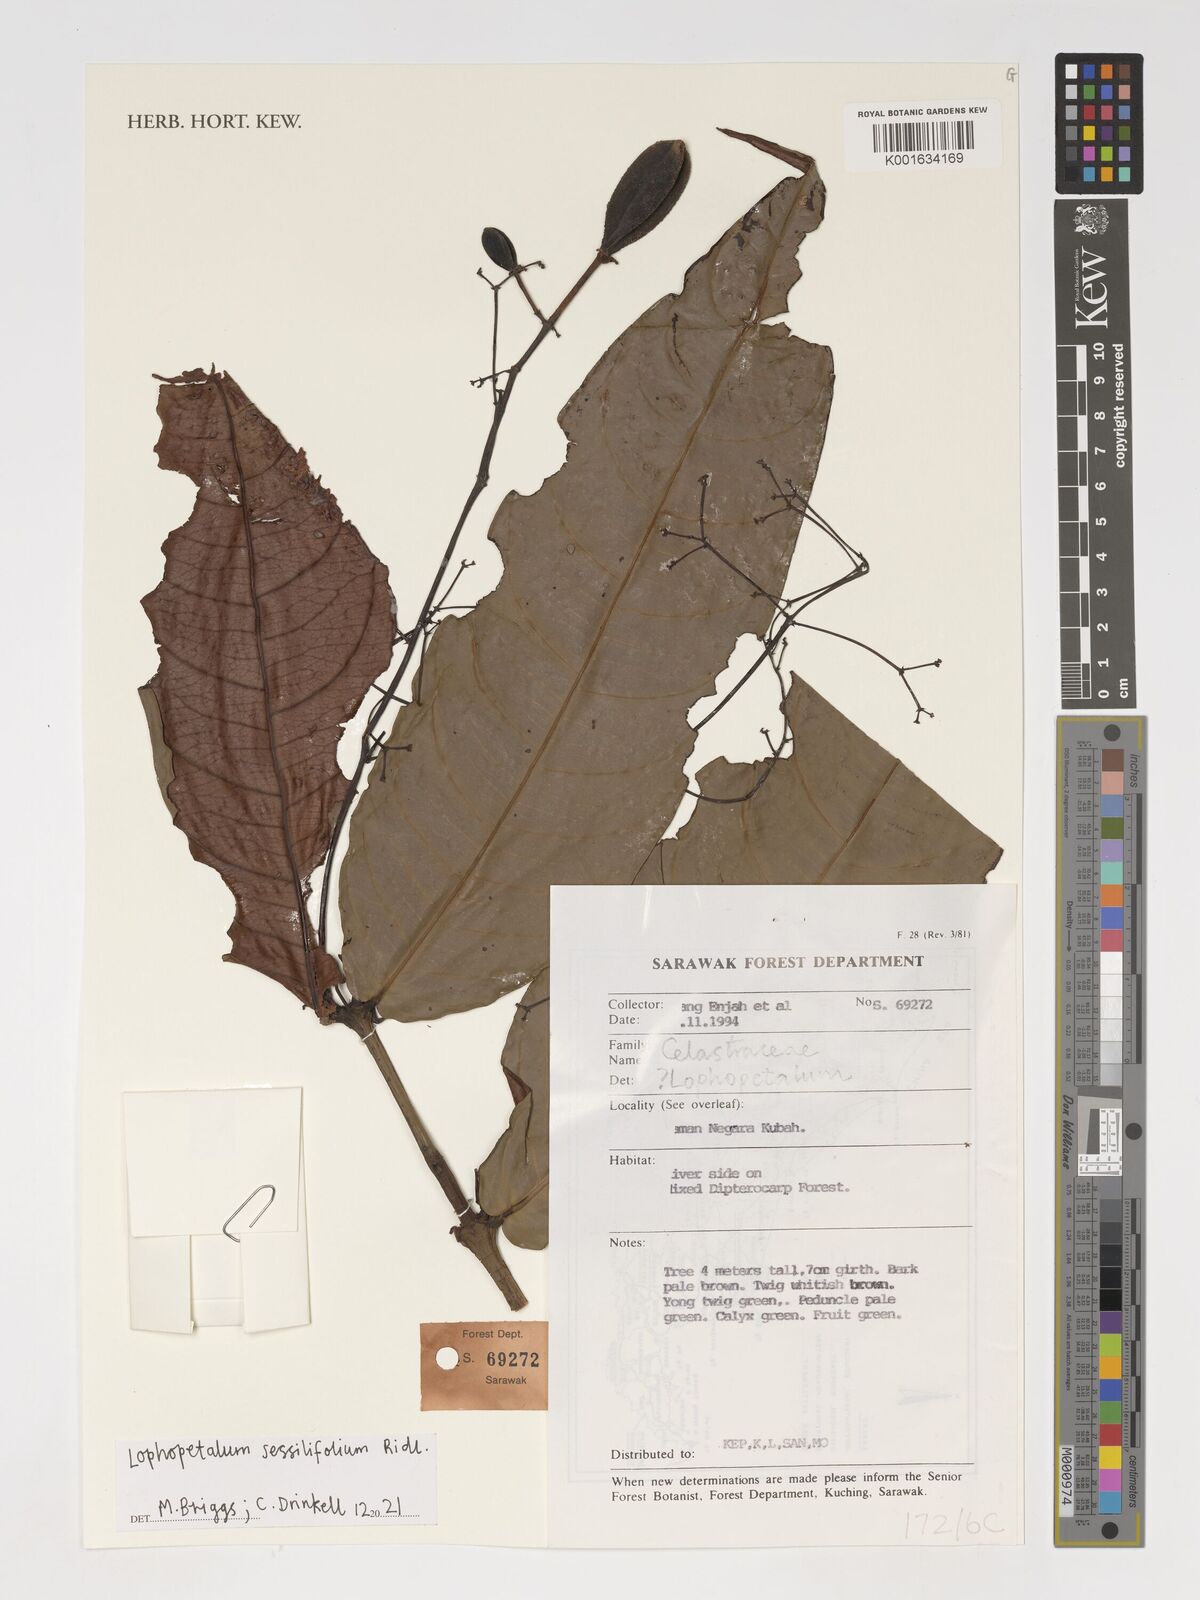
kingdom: Plantae
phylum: Tracheophyta
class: Magnoliopsida
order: Celastrales
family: Celastraceae
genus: Lophopetalum
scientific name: Lophopetalum sessilifolium
